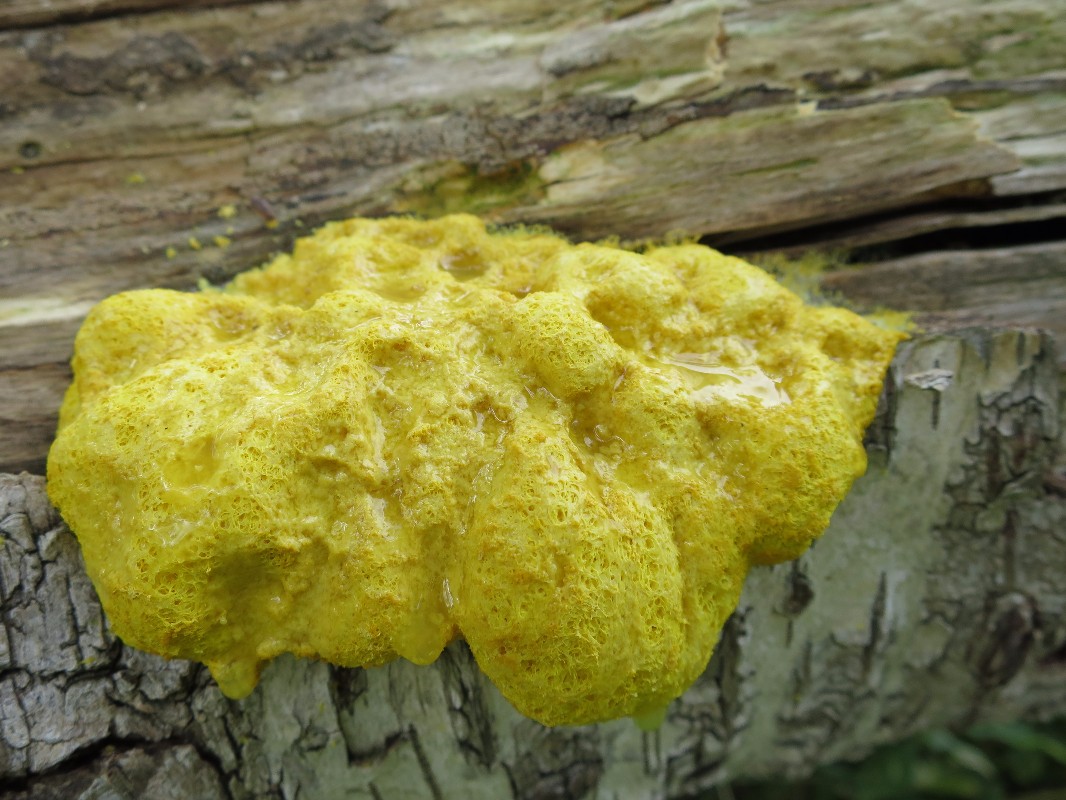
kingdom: Protozoa
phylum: Mycetozoa
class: Myxomycetes
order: Physarales
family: Physaraceae
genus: Fuligo
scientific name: Fuligo septica
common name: gul troldsmør
